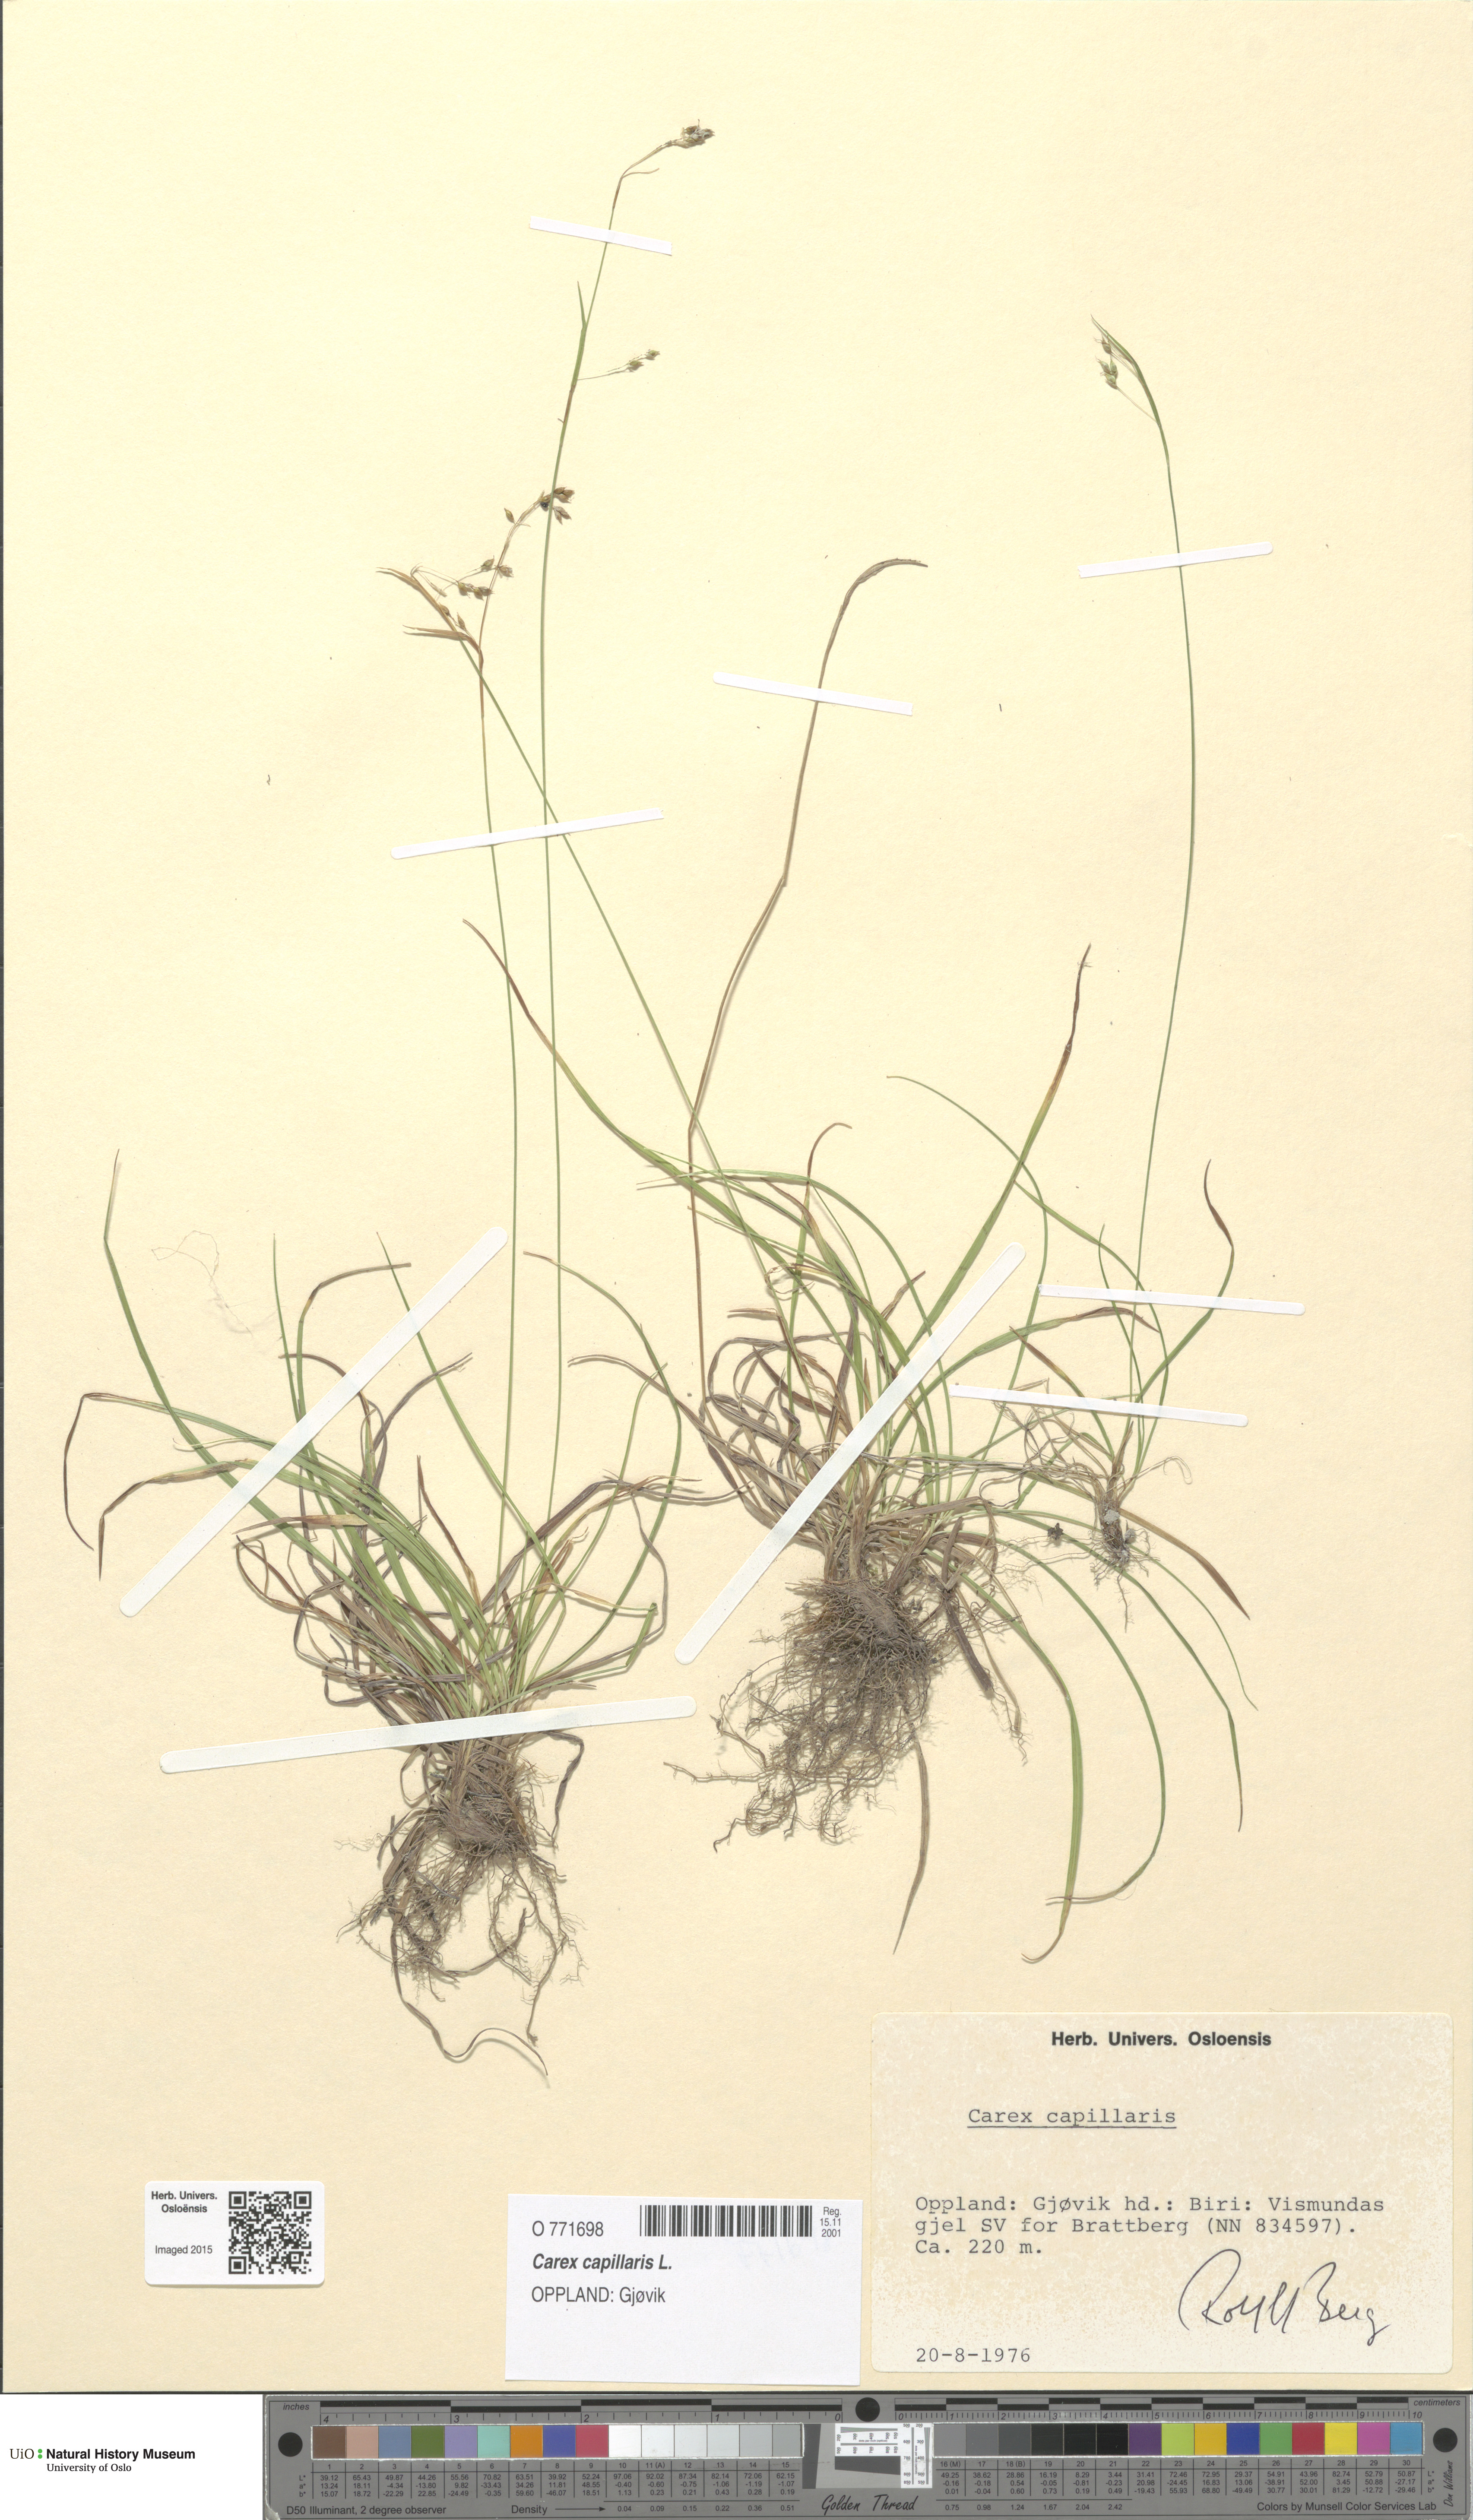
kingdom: Plantae
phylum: Tracheophyta
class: Liliopsida
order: Poales
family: Cyperaceae
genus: Carex
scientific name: Carex capillaris
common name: Hair sedge
